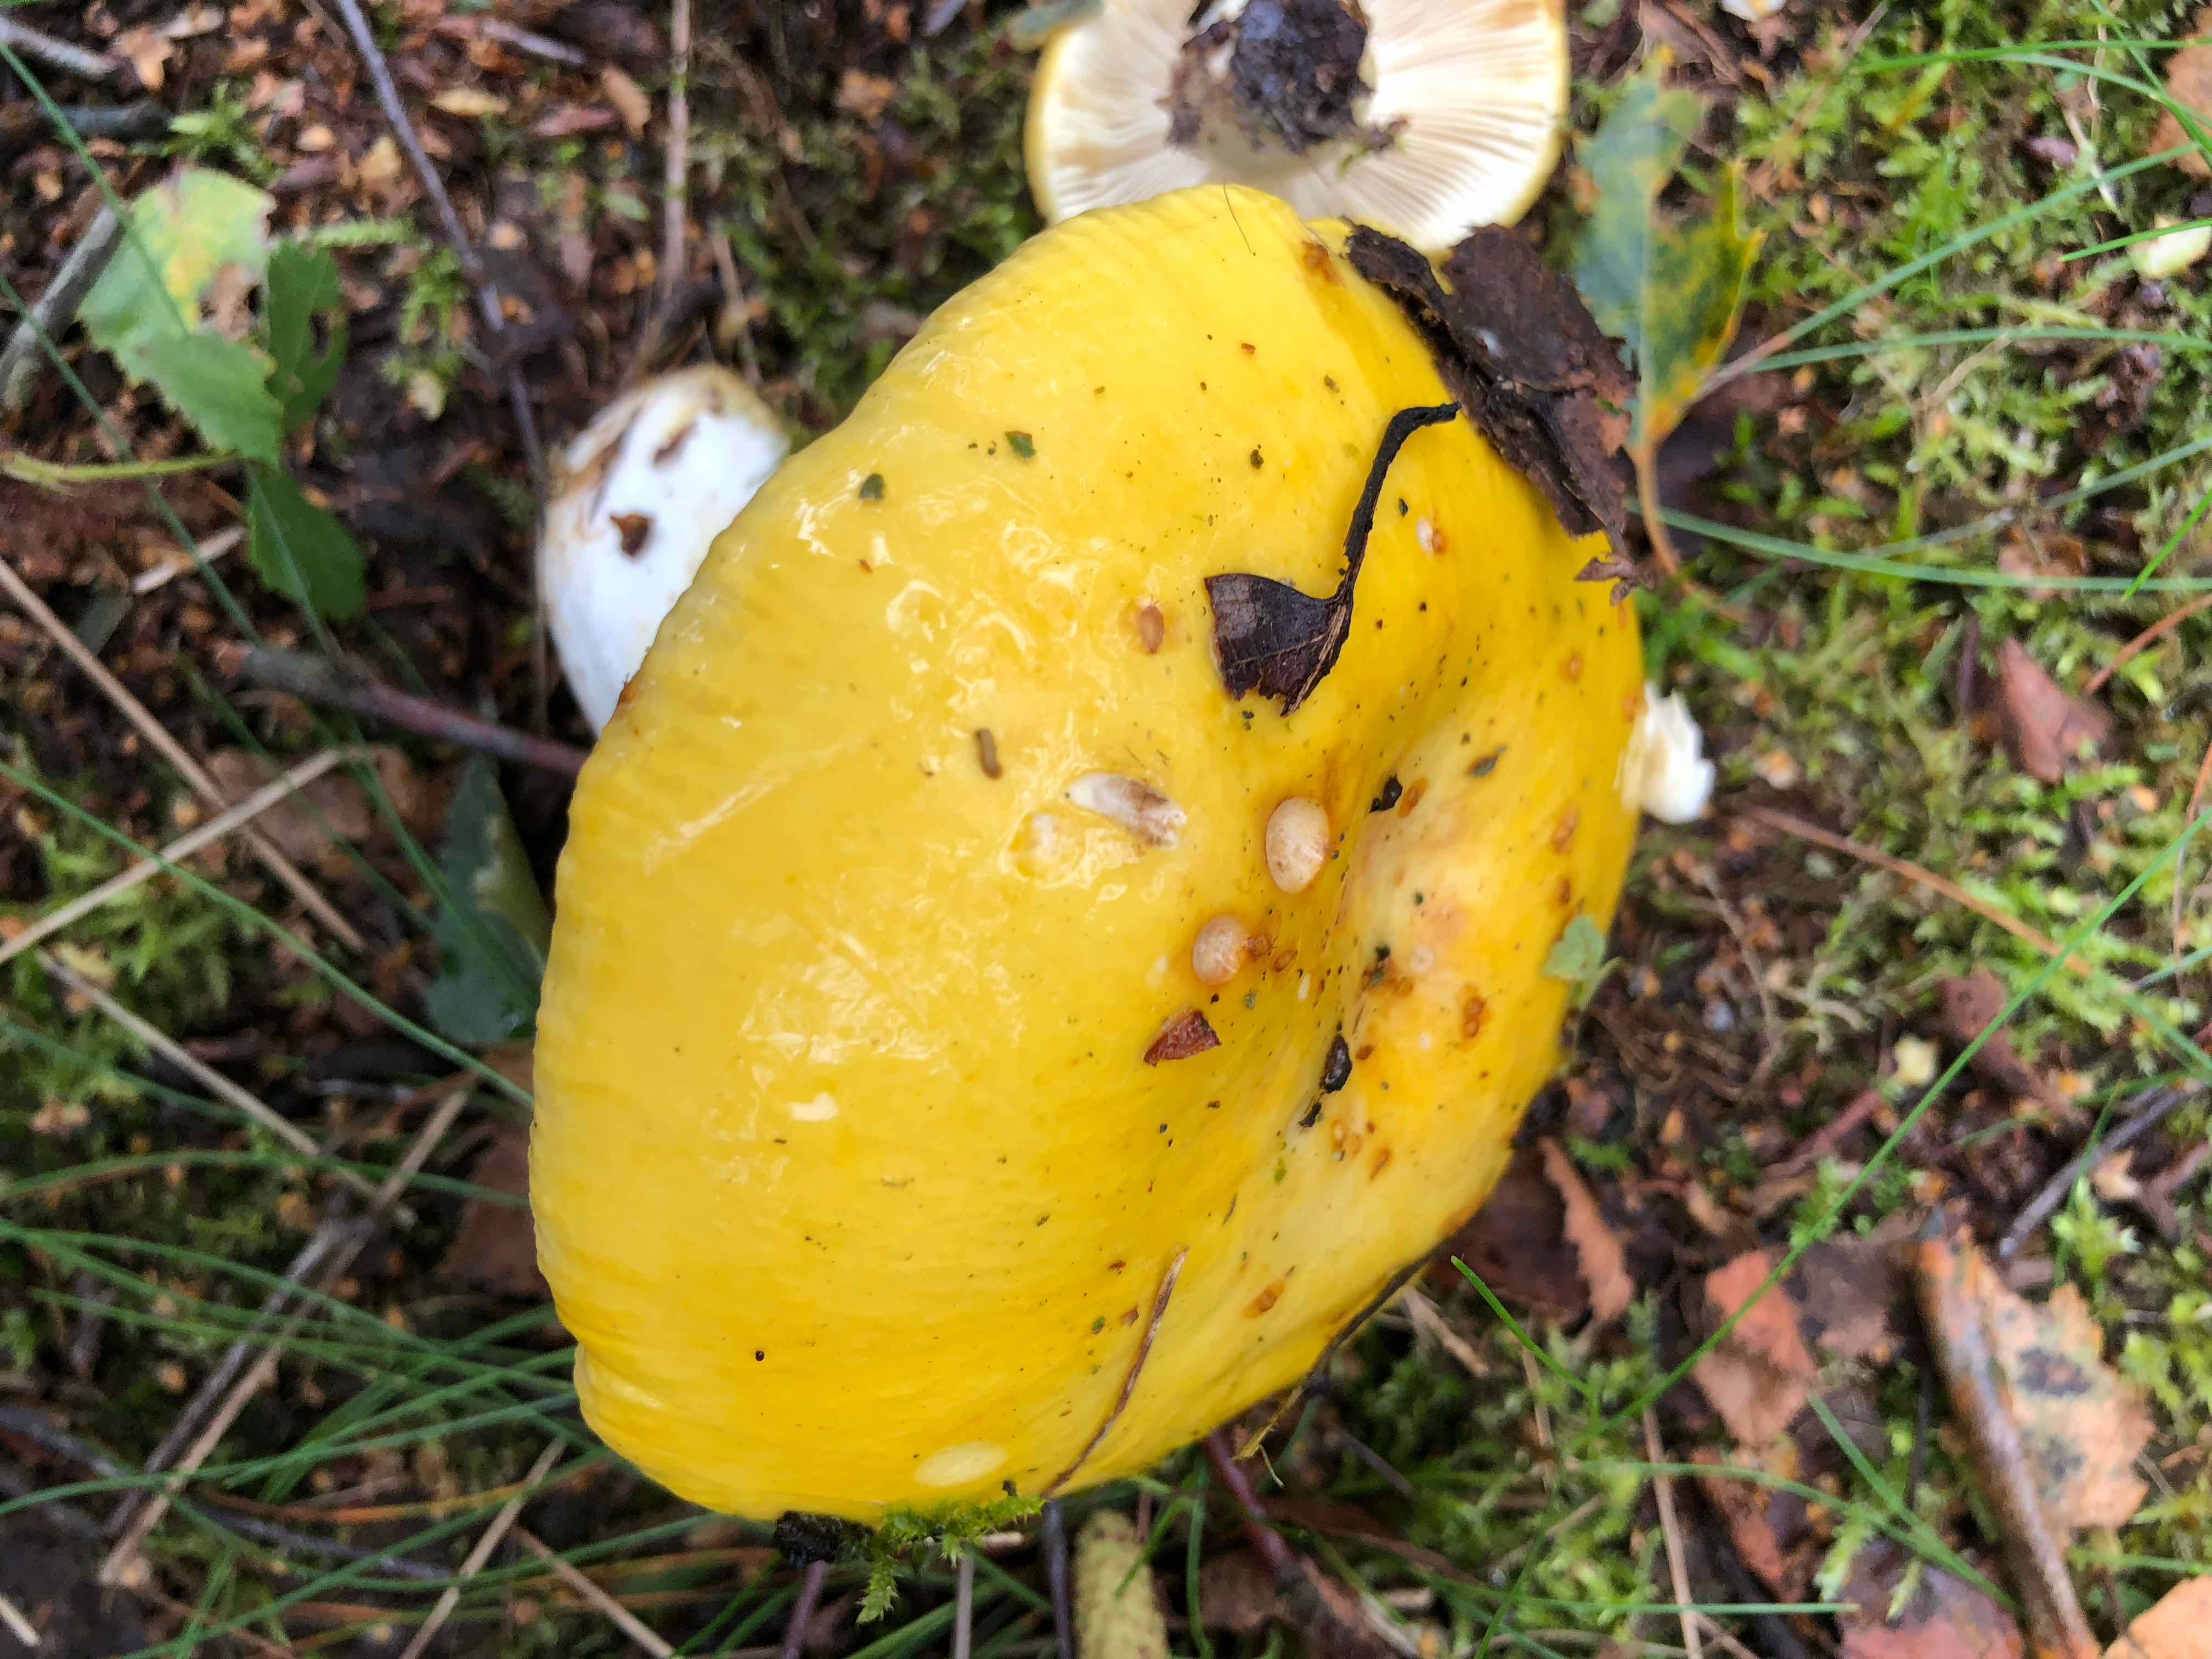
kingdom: Fungi
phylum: Basidiomycota
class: Agaricomycetes
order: Russulales
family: Russulaceae
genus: Russula
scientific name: Russula claroflava
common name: birke-skørhat
